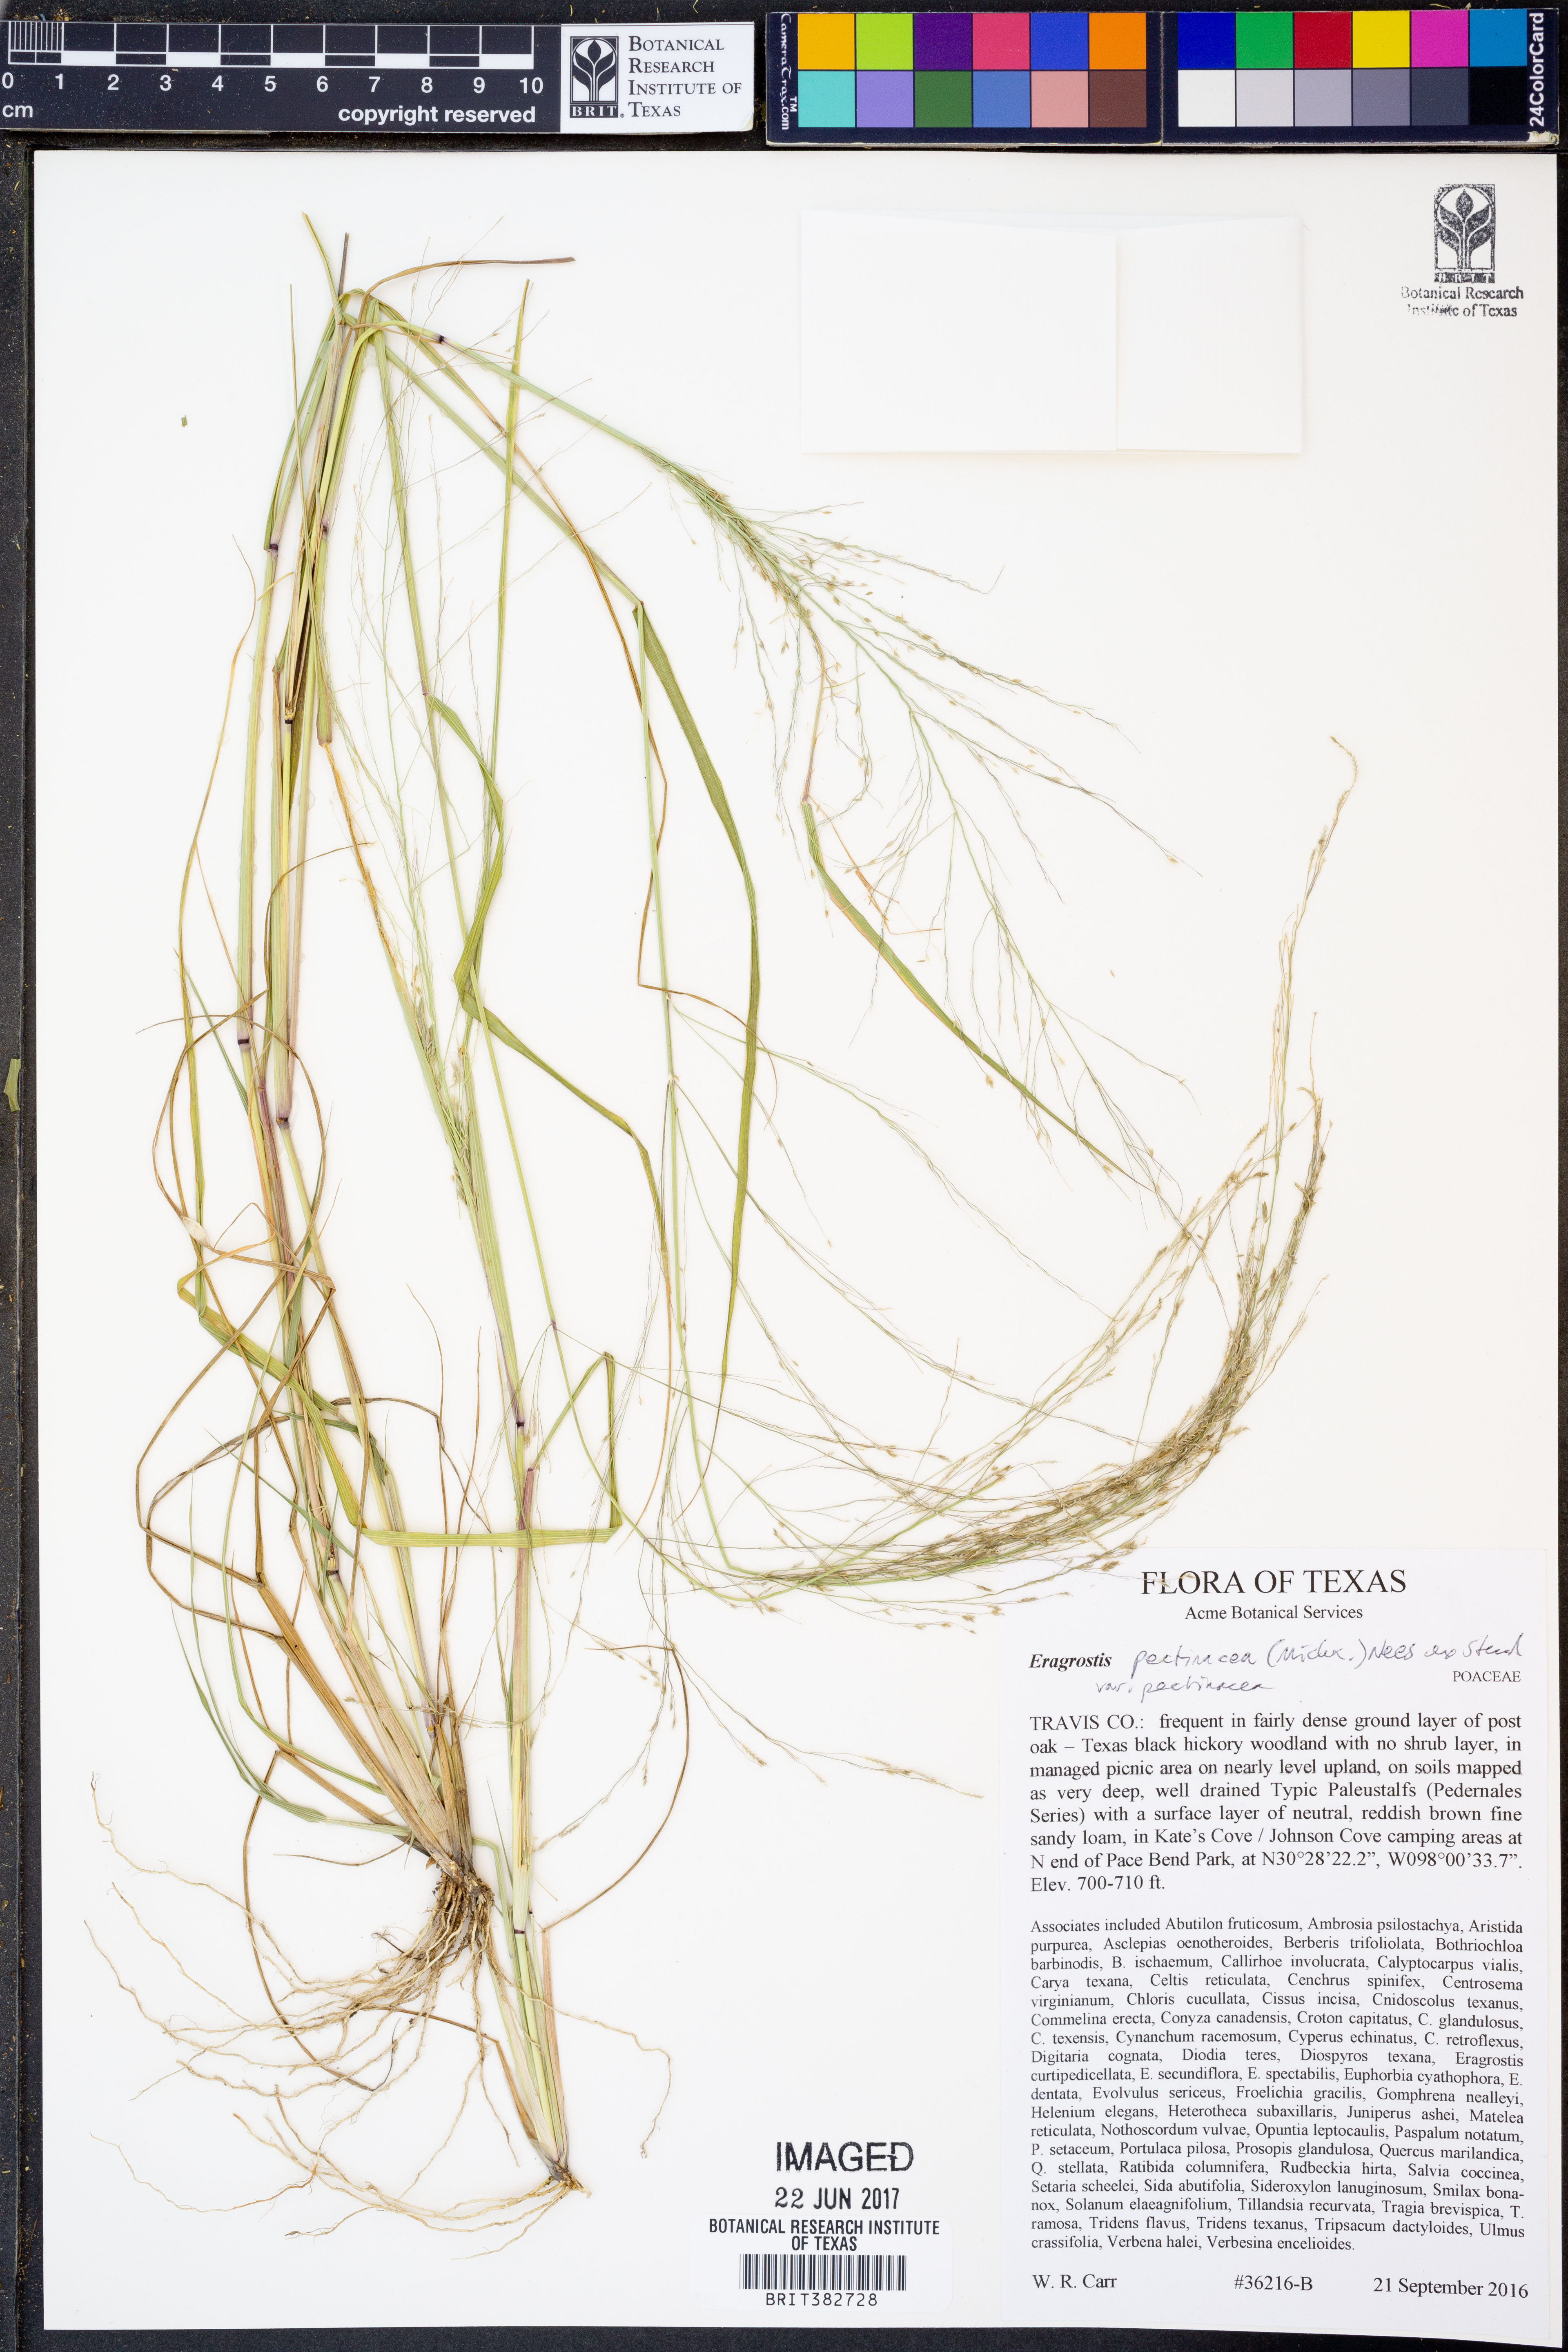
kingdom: Plantae
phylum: Tracheophyta
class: Liliopsida
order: Poales
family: Poaceae
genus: Eragrostis
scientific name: Eragrostis pectinacea
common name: Tufted lovegrass
